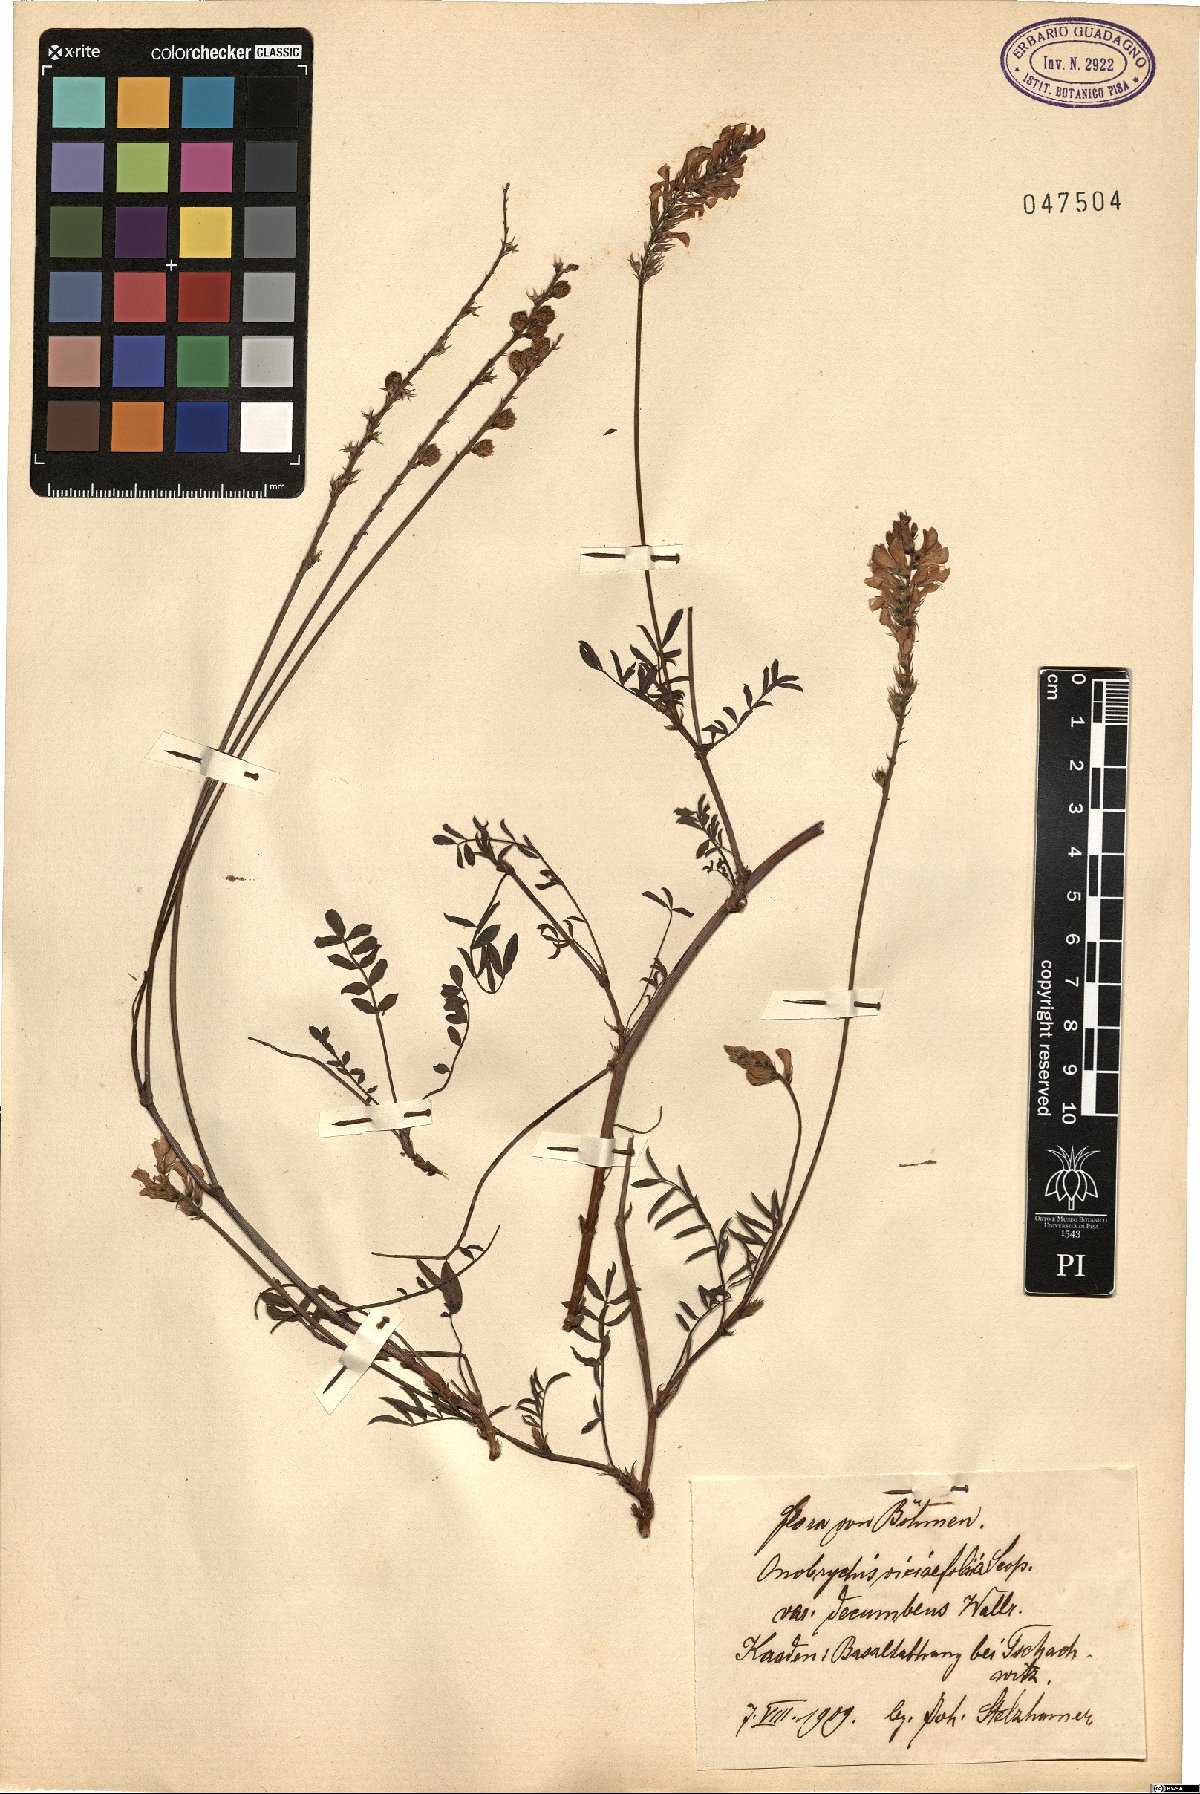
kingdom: Plantae
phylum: Tracheophyta
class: Magnoliopsida
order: Fabales
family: Fabaceae
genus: Onobrychis
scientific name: Onobrychis montana
